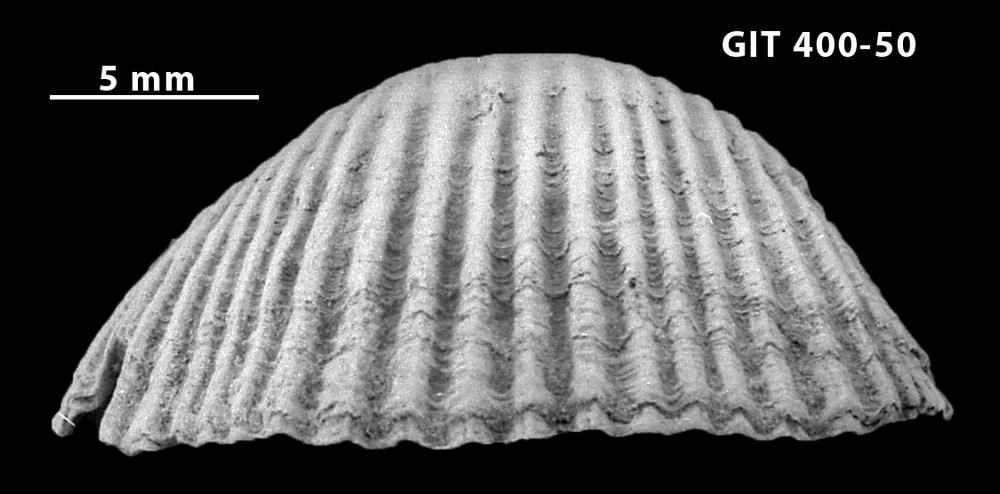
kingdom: Animalia
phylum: Brachiopoda
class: Rhynchonellata
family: Orthidae
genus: Cyrtonotella
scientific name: Cyrtonotella
